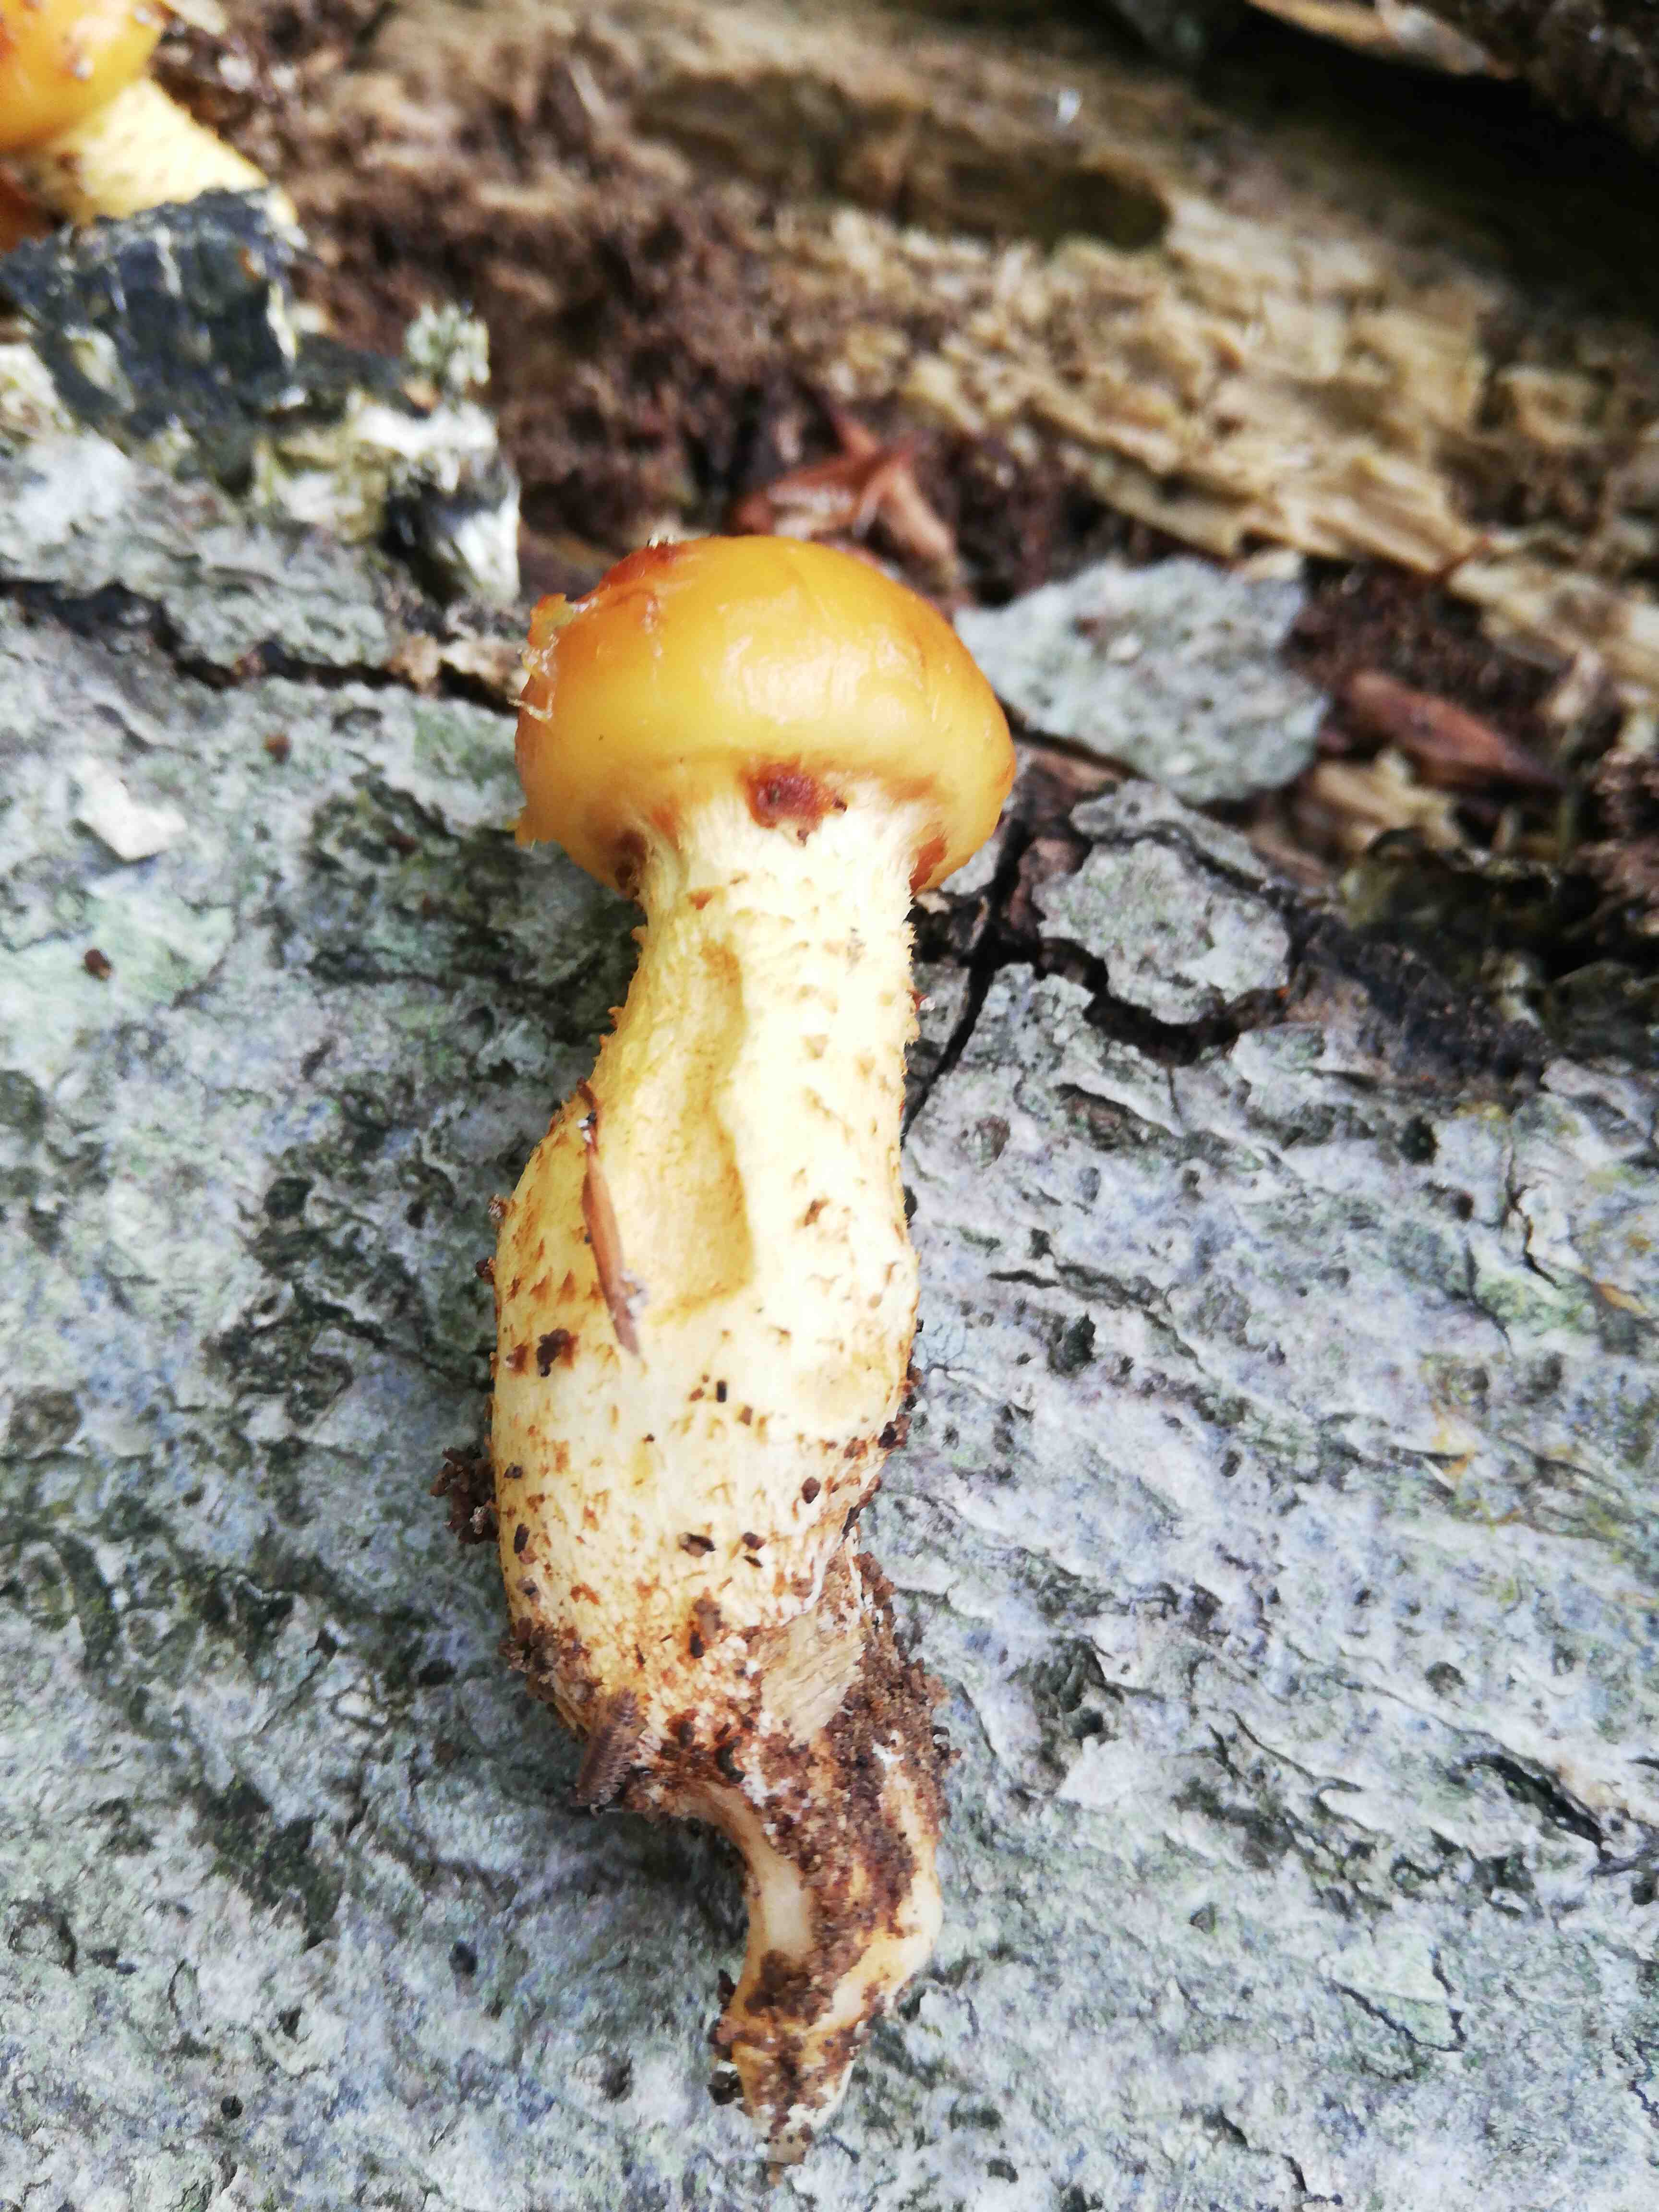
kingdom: Fungi
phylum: Basidiomycota
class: Agaricomycetes
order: Agaricales
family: Strophariaceae
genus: Pholiota
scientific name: Pholiota adiposa
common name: højtsiddende skælhat
